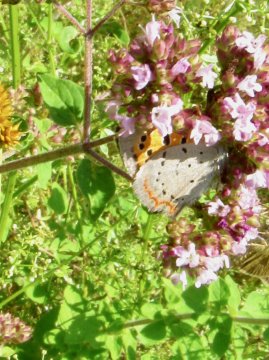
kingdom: Animalia
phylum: Arthropoda
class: Insecta
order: Lepidoptera
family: Lycaenidae
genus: Lycaena
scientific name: Lycaena phlaeas
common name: American Copper
